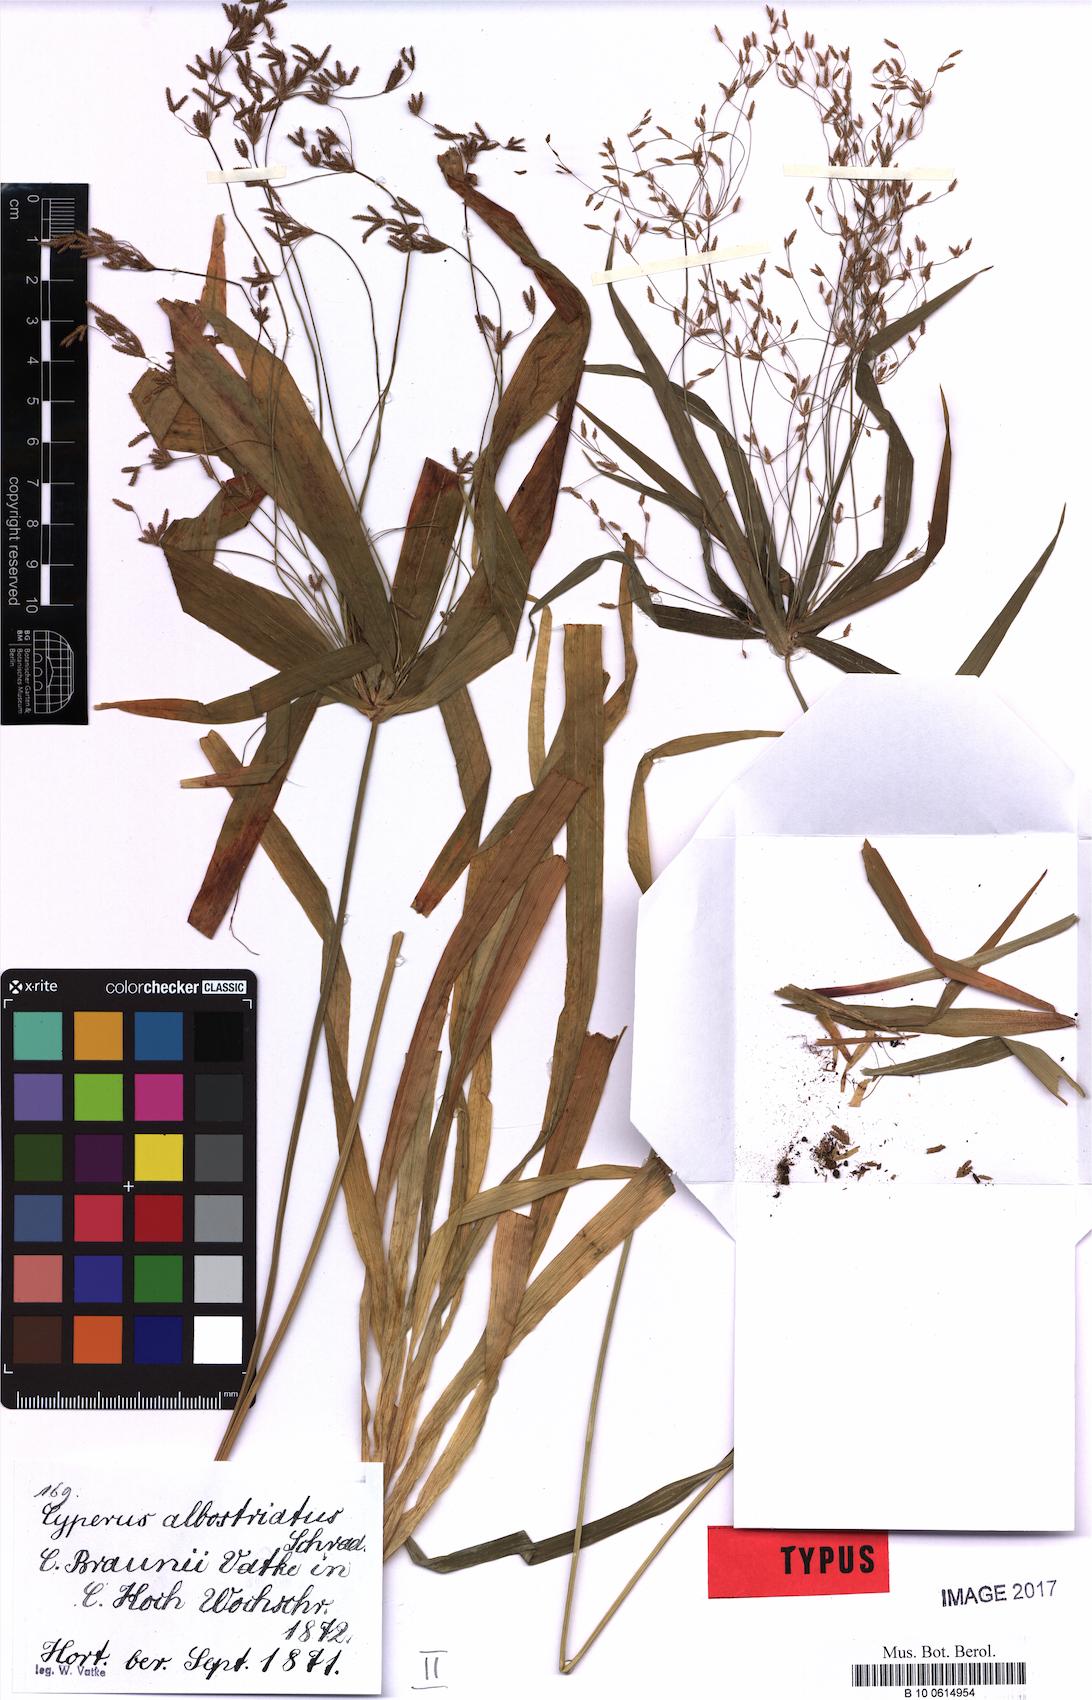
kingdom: Plantae
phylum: Tracheophyta
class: Liliopsida
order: Poales
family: Cyperaceae
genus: Cyperus
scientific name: Cyperus albostriatus
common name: Dwarf umbrella-grass
